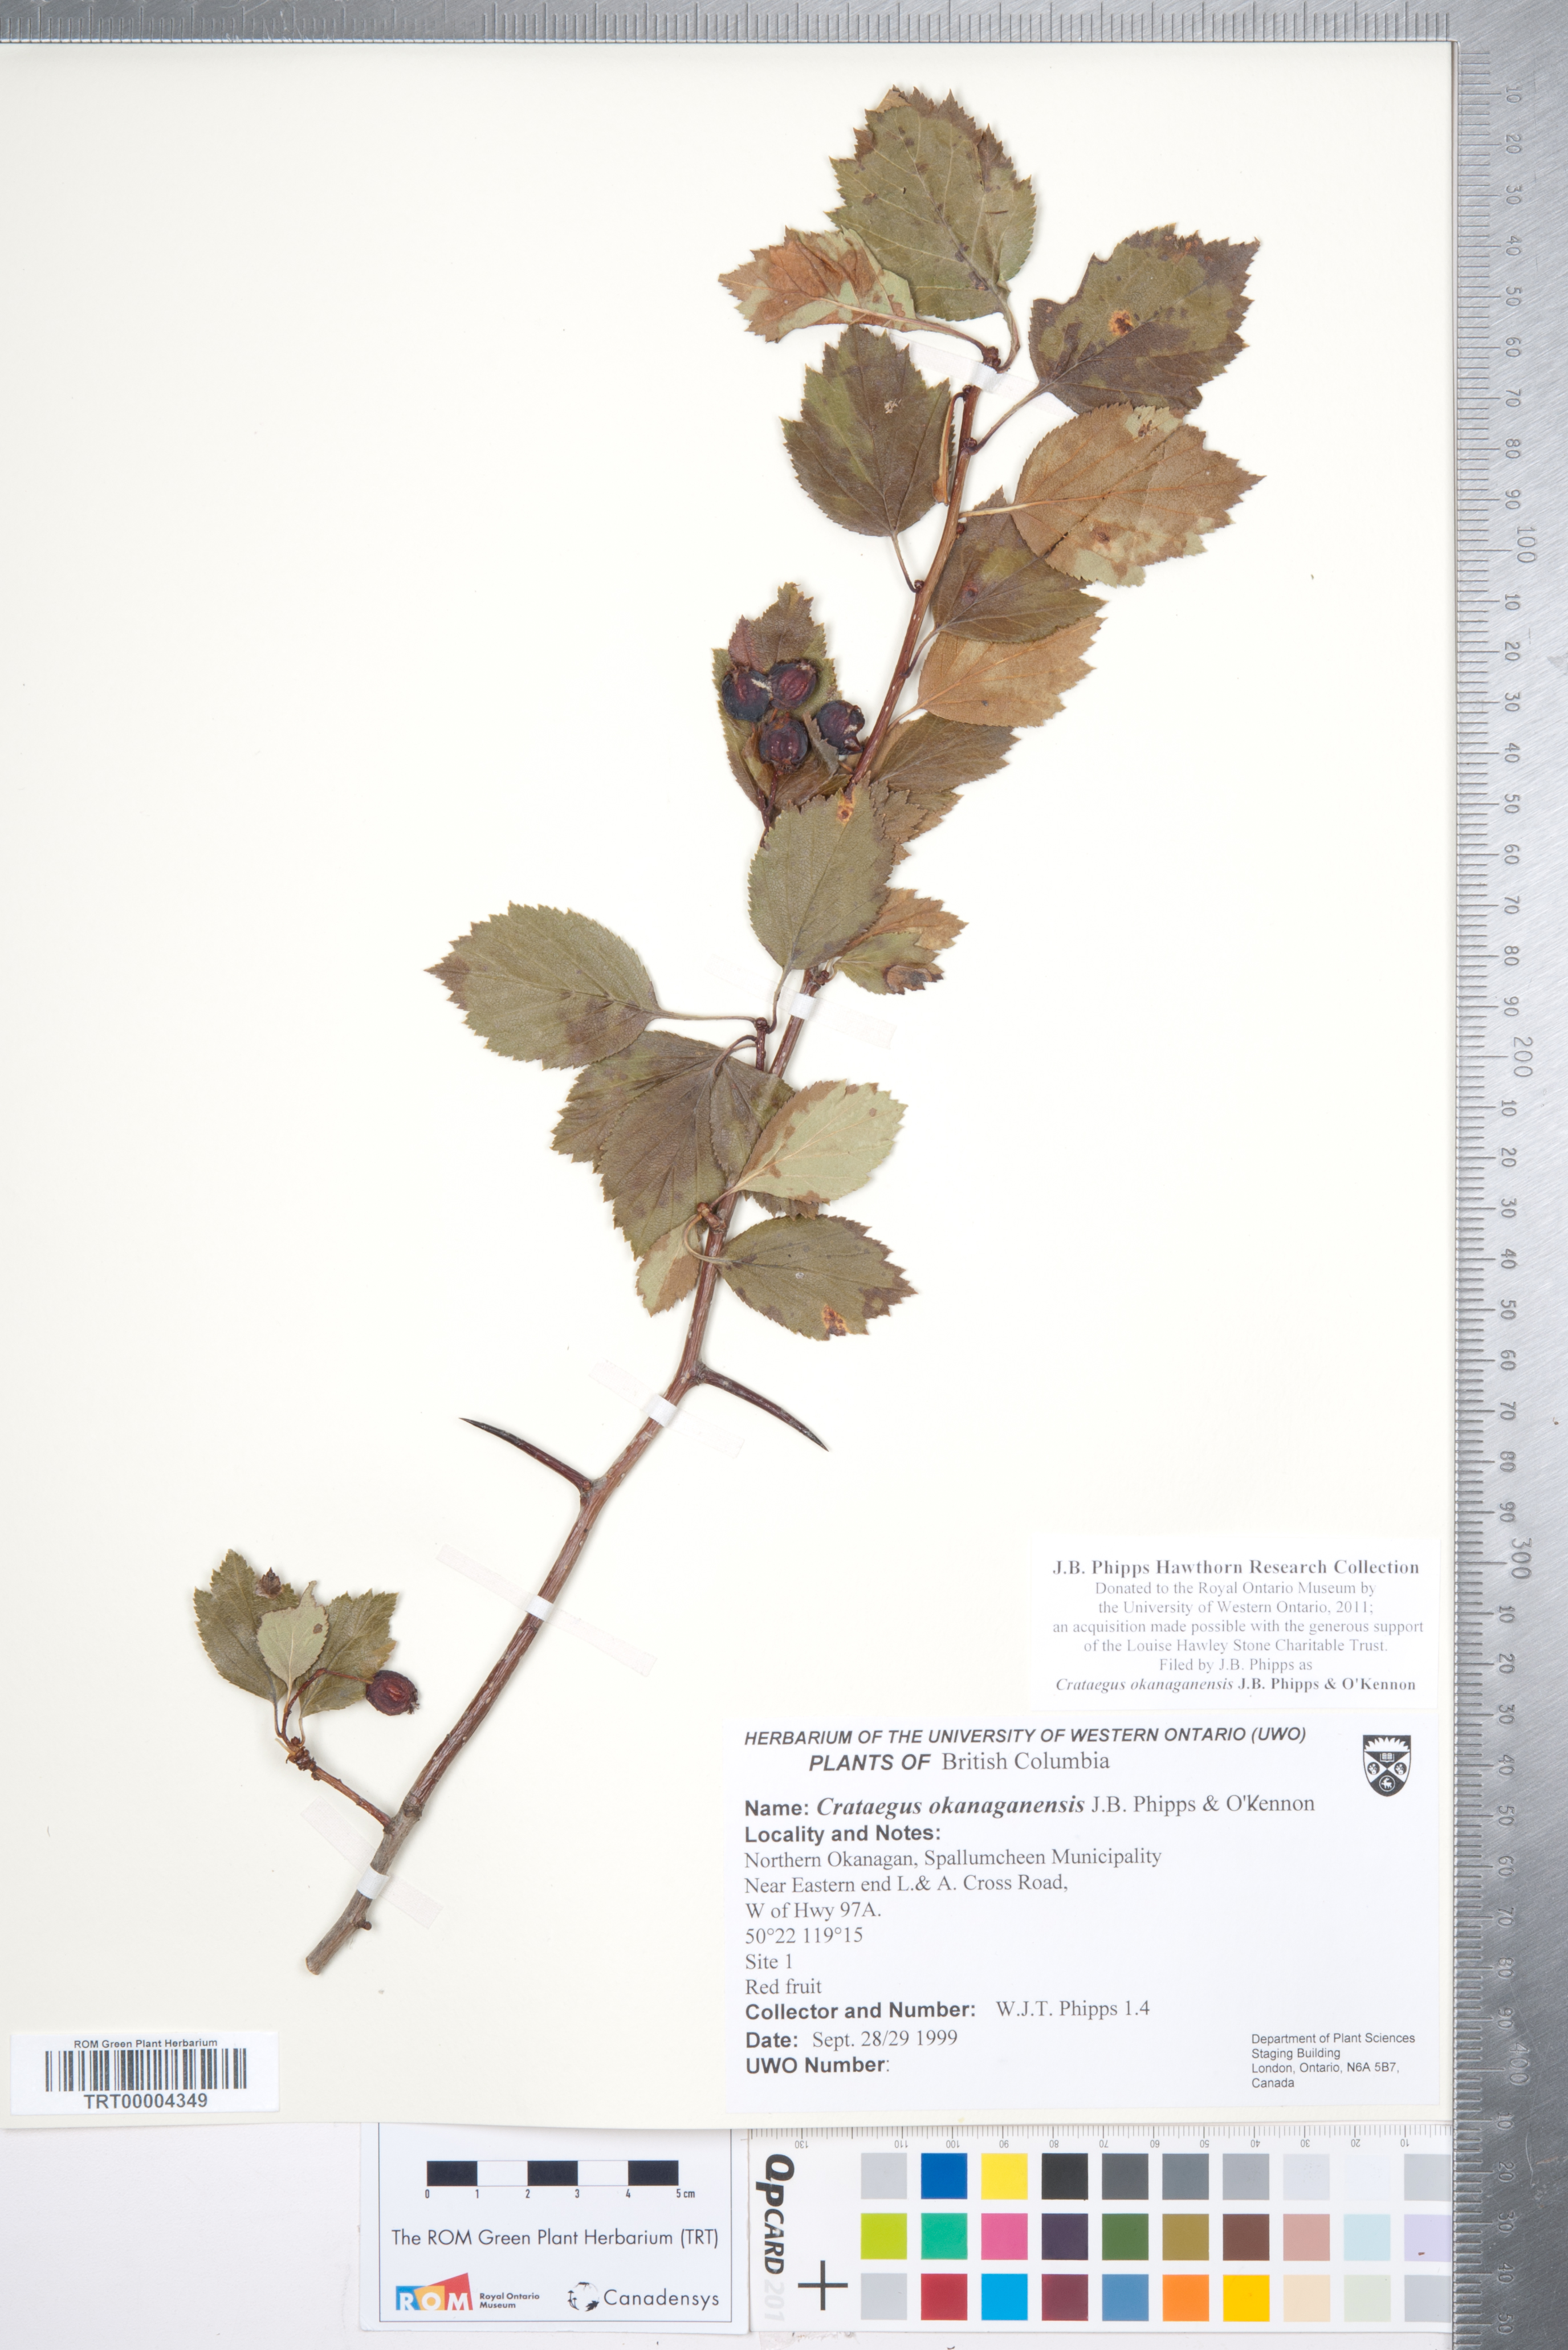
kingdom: Plantae
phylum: Tracheophyta
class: Magnoliopsida
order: Rosales
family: Rosaceae
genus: Crataegus
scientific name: Crataegus okanaganensis
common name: Okanagan valley hawthorn
